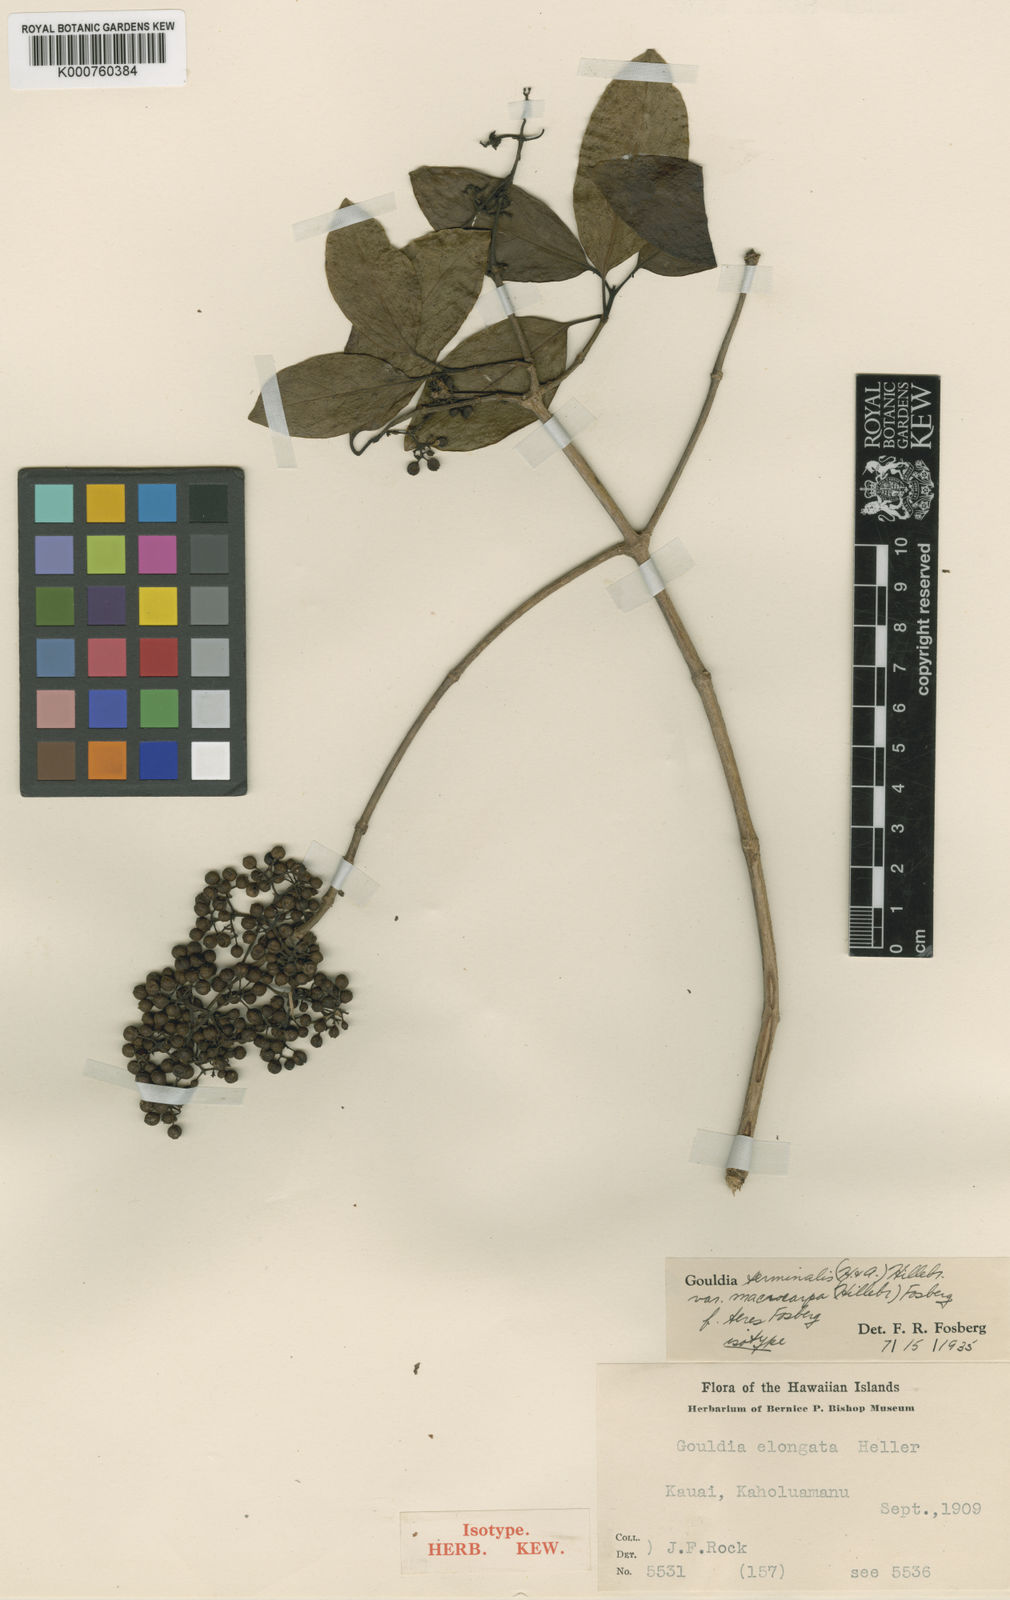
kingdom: Plantae
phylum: Tracheophyta
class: Magnoliopsida
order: Gentianales
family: Rubiaceae
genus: Kadua
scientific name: Kadua affinis
